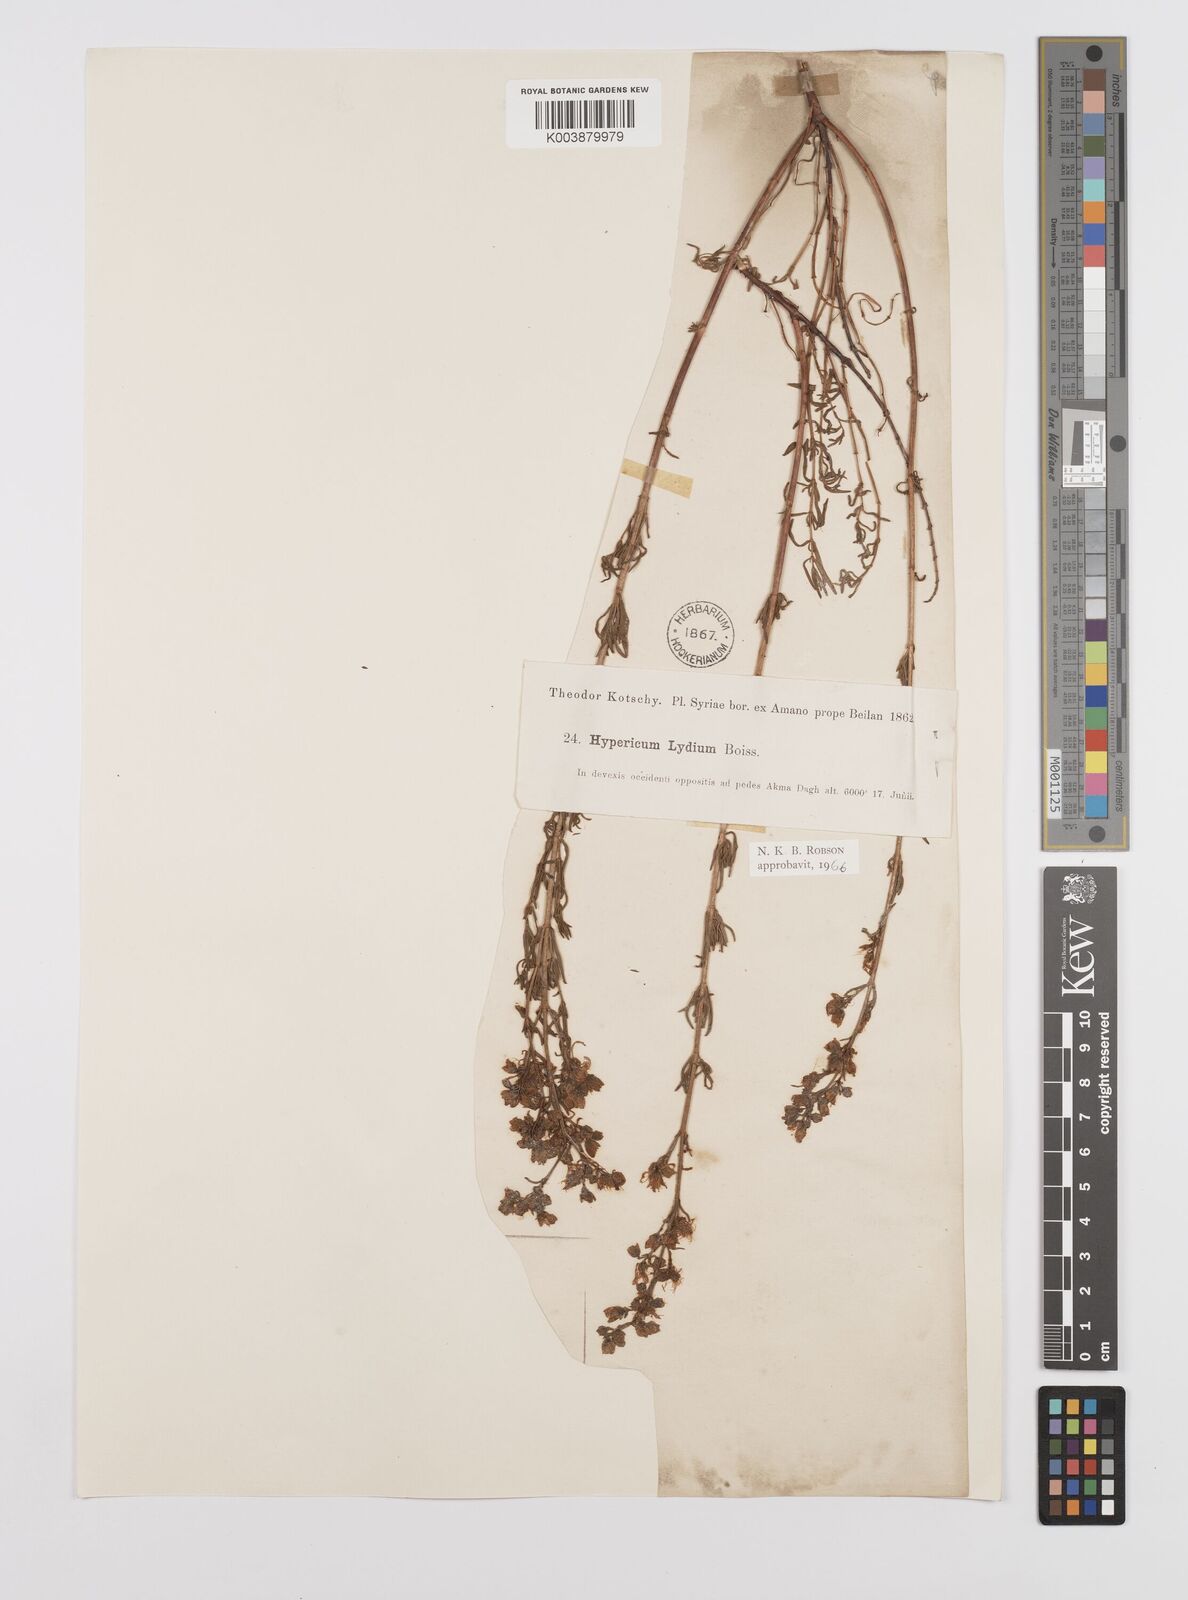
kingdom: Plantae
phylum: Tracheophyta
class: Magnoliopsida
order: Malpighiales
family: Hypericaceae
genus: Hypericum
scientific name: Hypericum lydium
